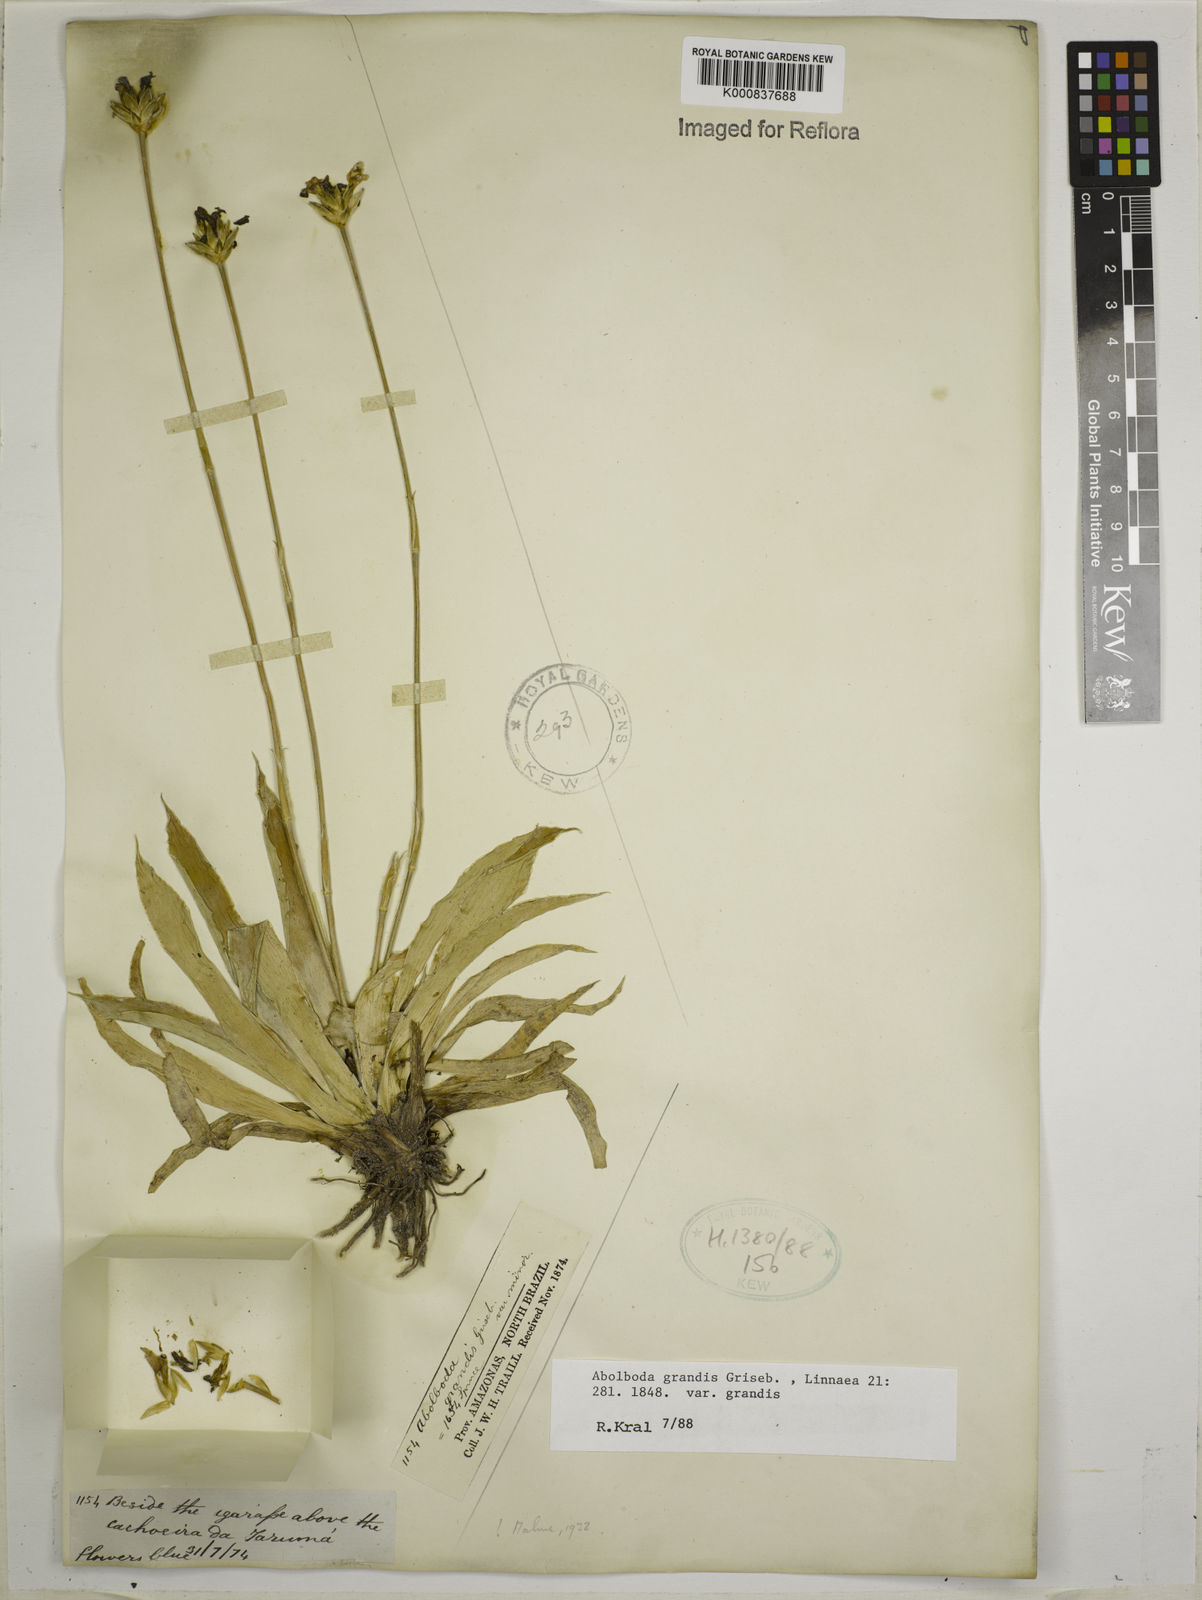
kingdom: Plantae
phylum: Tracheophyta
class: Liliopsida
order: Poales
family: Xyridaceae
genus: Abolboda
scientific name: Abolboda grandis
